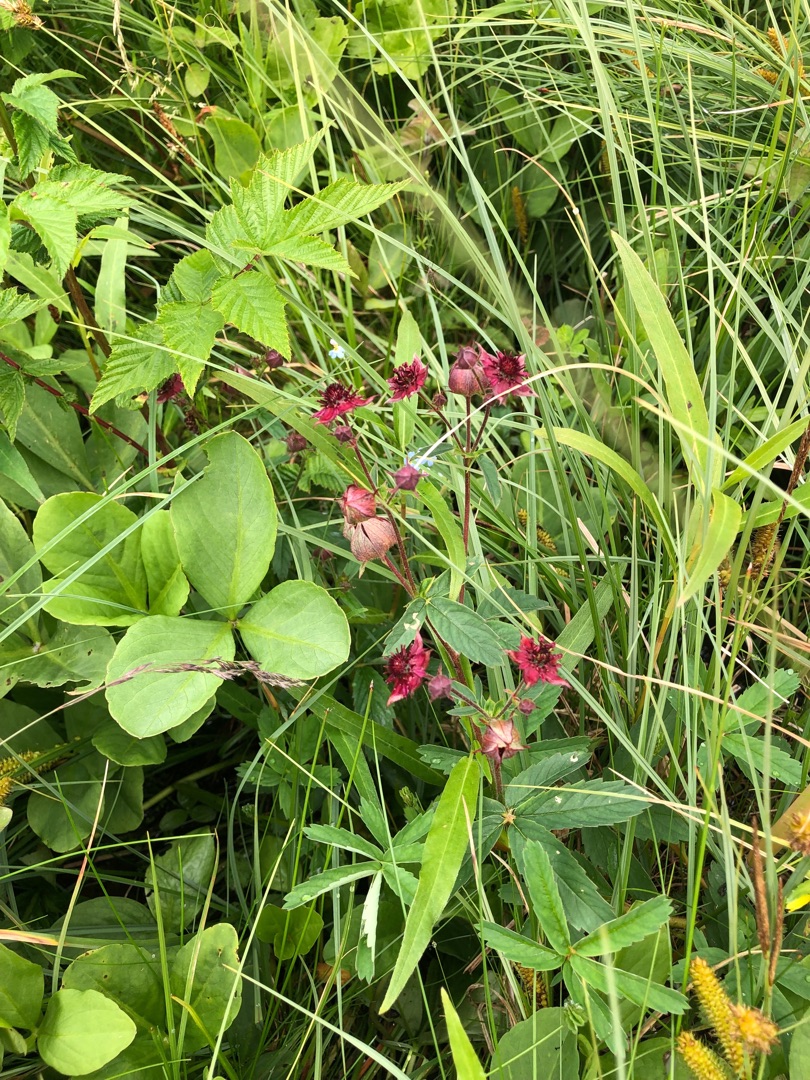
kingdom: Plantae
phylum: Tracheophyta
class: Magnoliopsida
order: Rosales
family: Rosaceae
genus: Comarum
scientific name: Comarum palustre
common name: Kragefod
